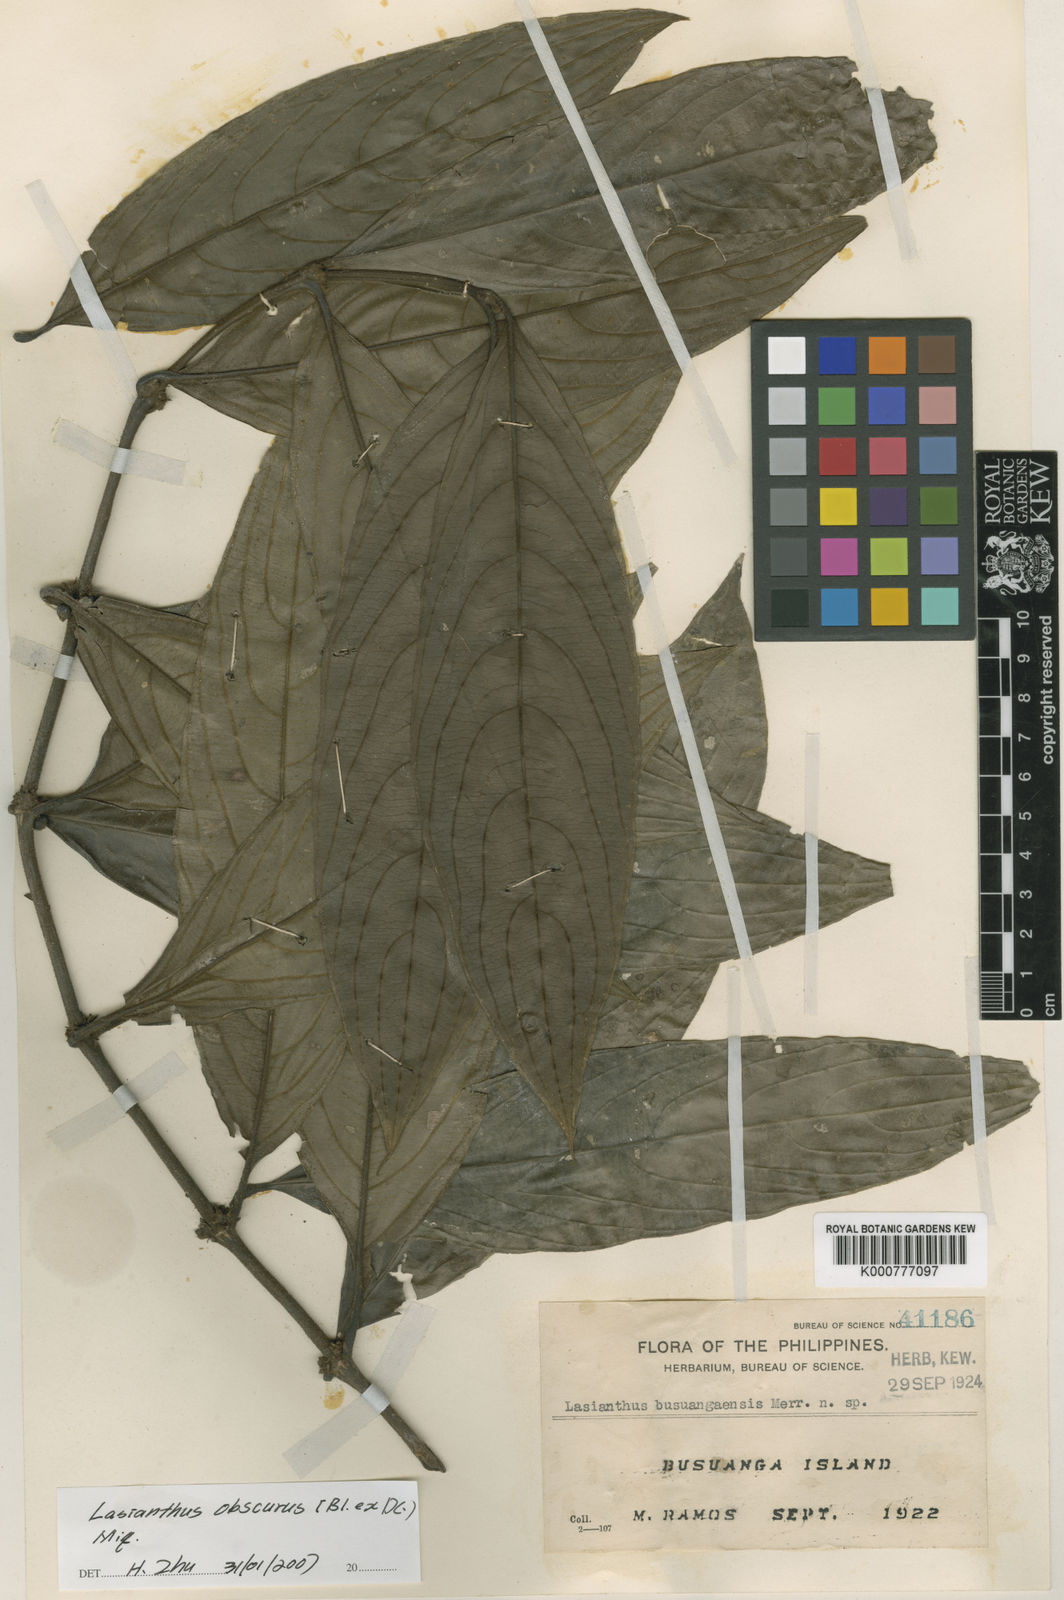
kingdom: Plantae
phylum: Tracheophyta
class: Magnoliopsida
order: Gentianales
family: Rubiaceae
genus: Lasianthus
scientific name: Lasianthus obscurus
